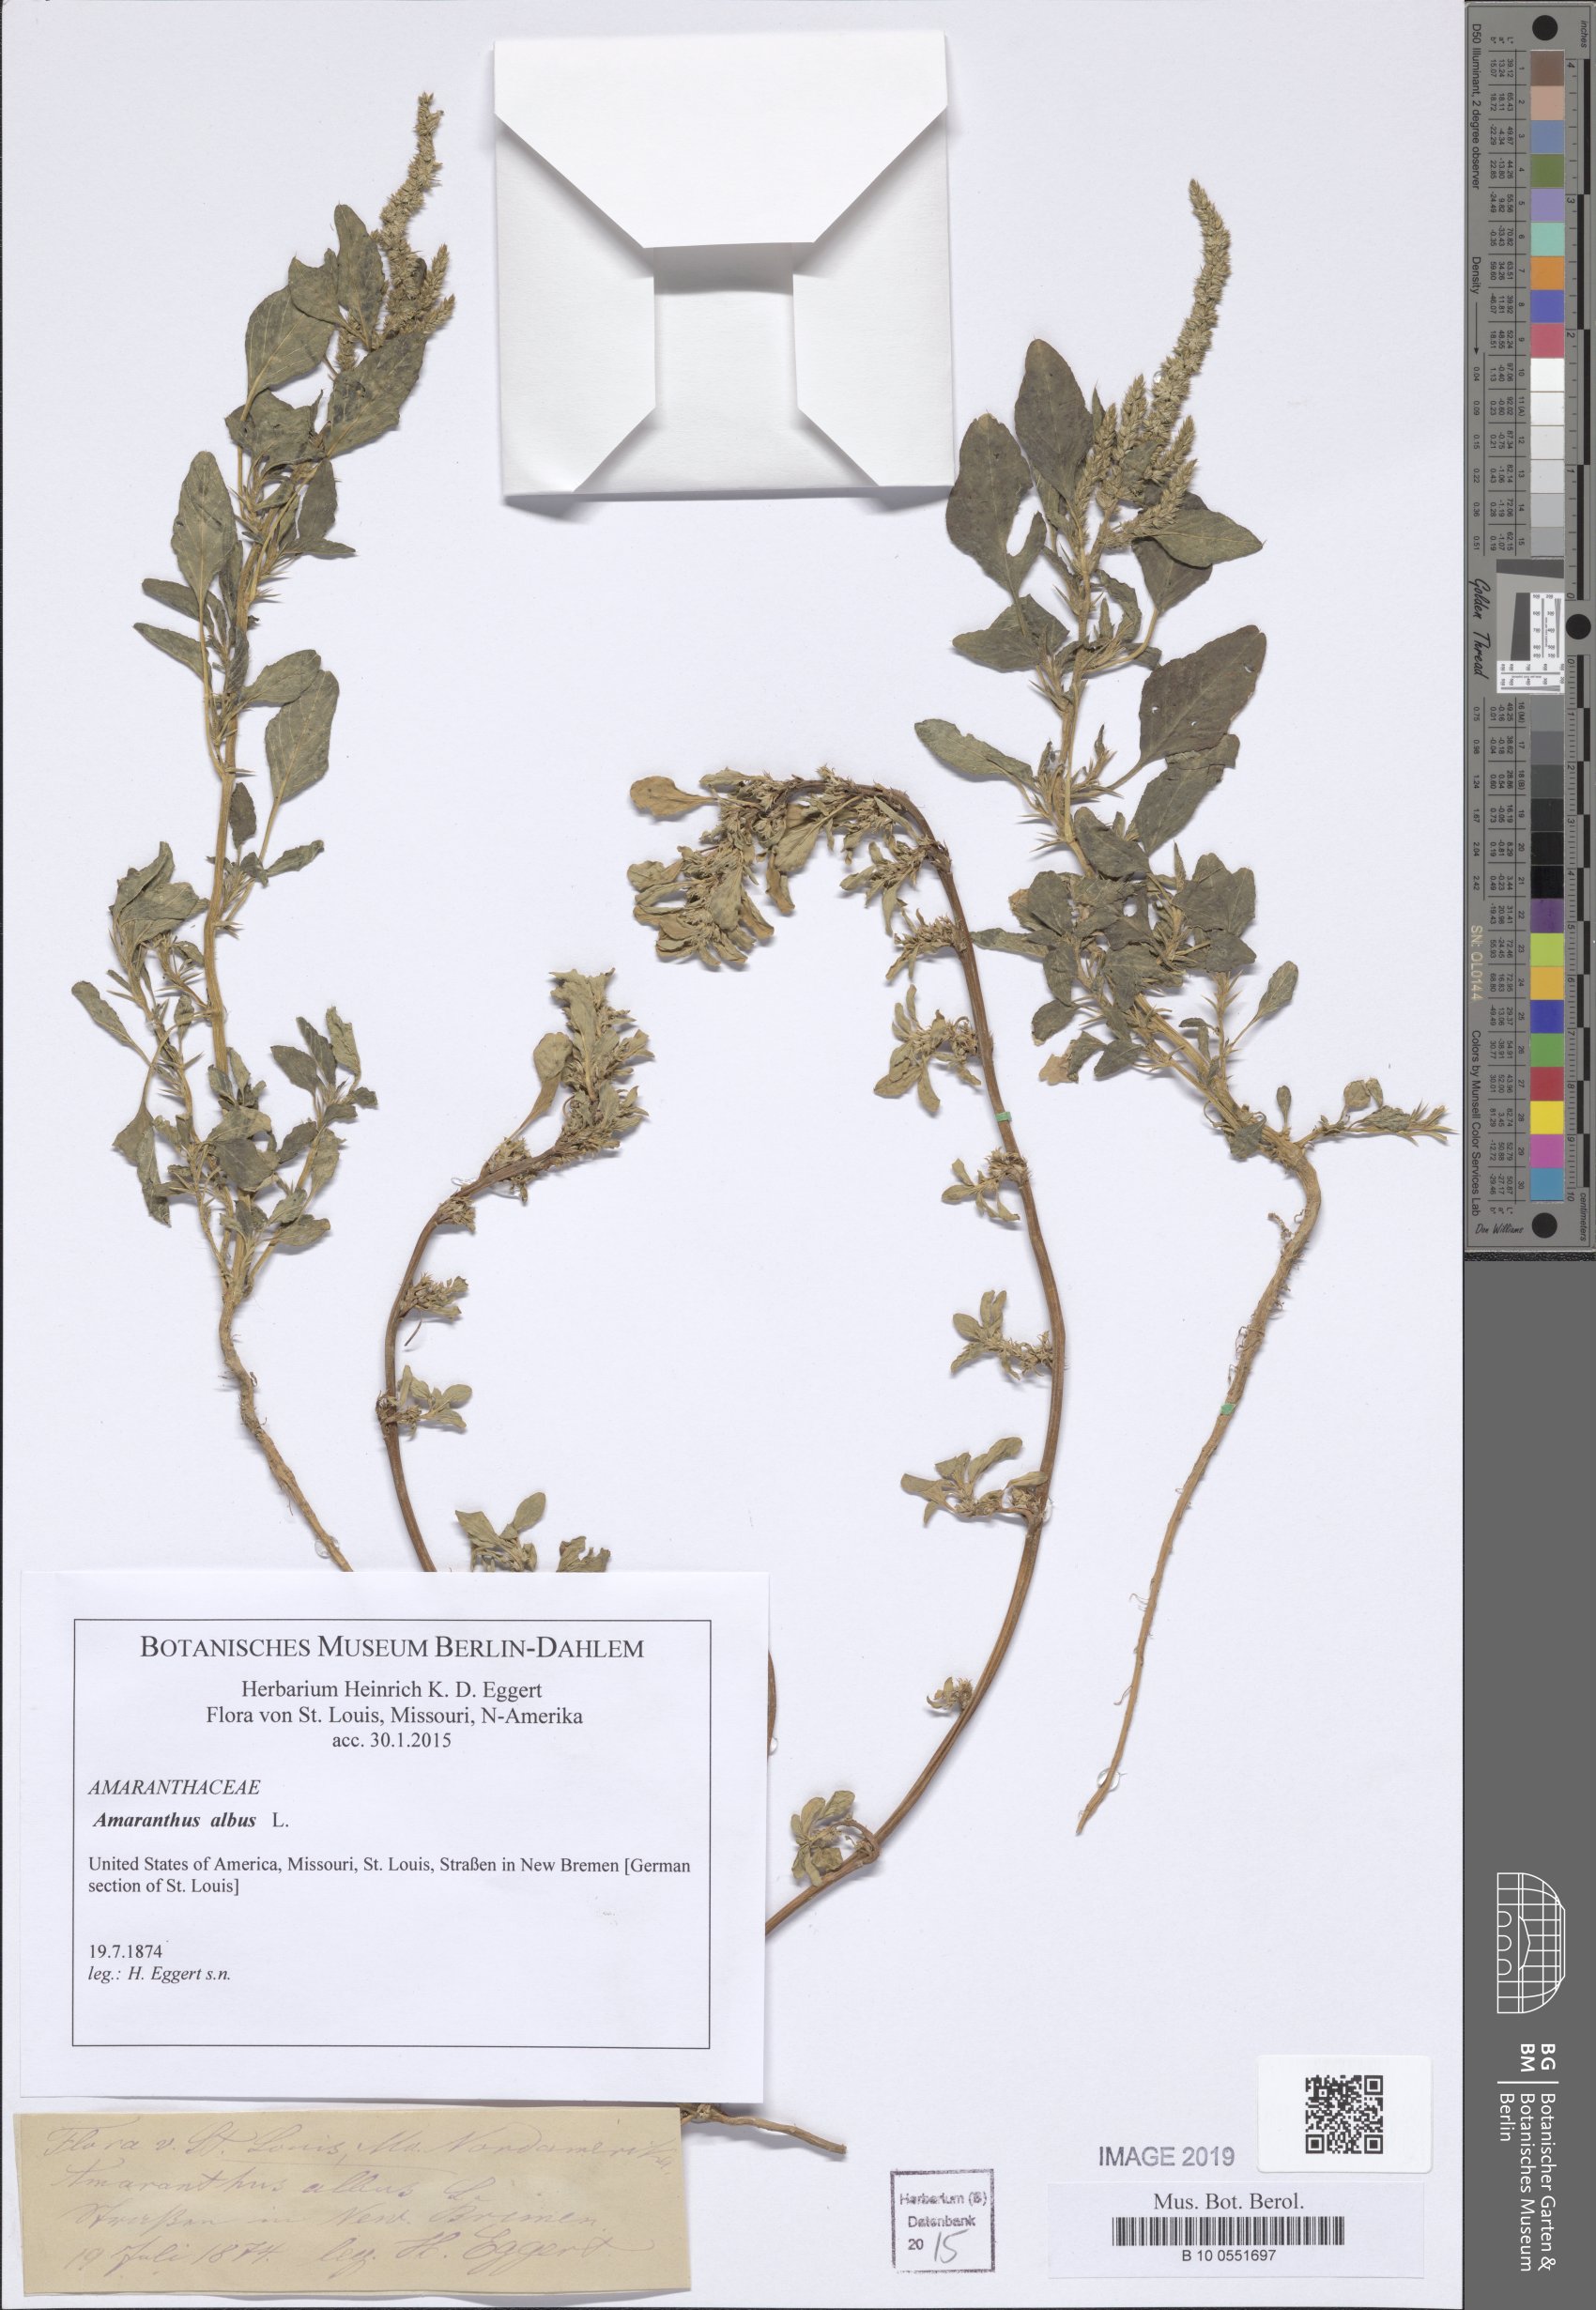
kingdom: Plantae
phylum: Tracheophyta
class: Magnoliopsida
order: Caryophyllales
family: Amaranthaceae
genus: Amaranthus
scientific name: Amaranthus albus
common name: White pigweed
